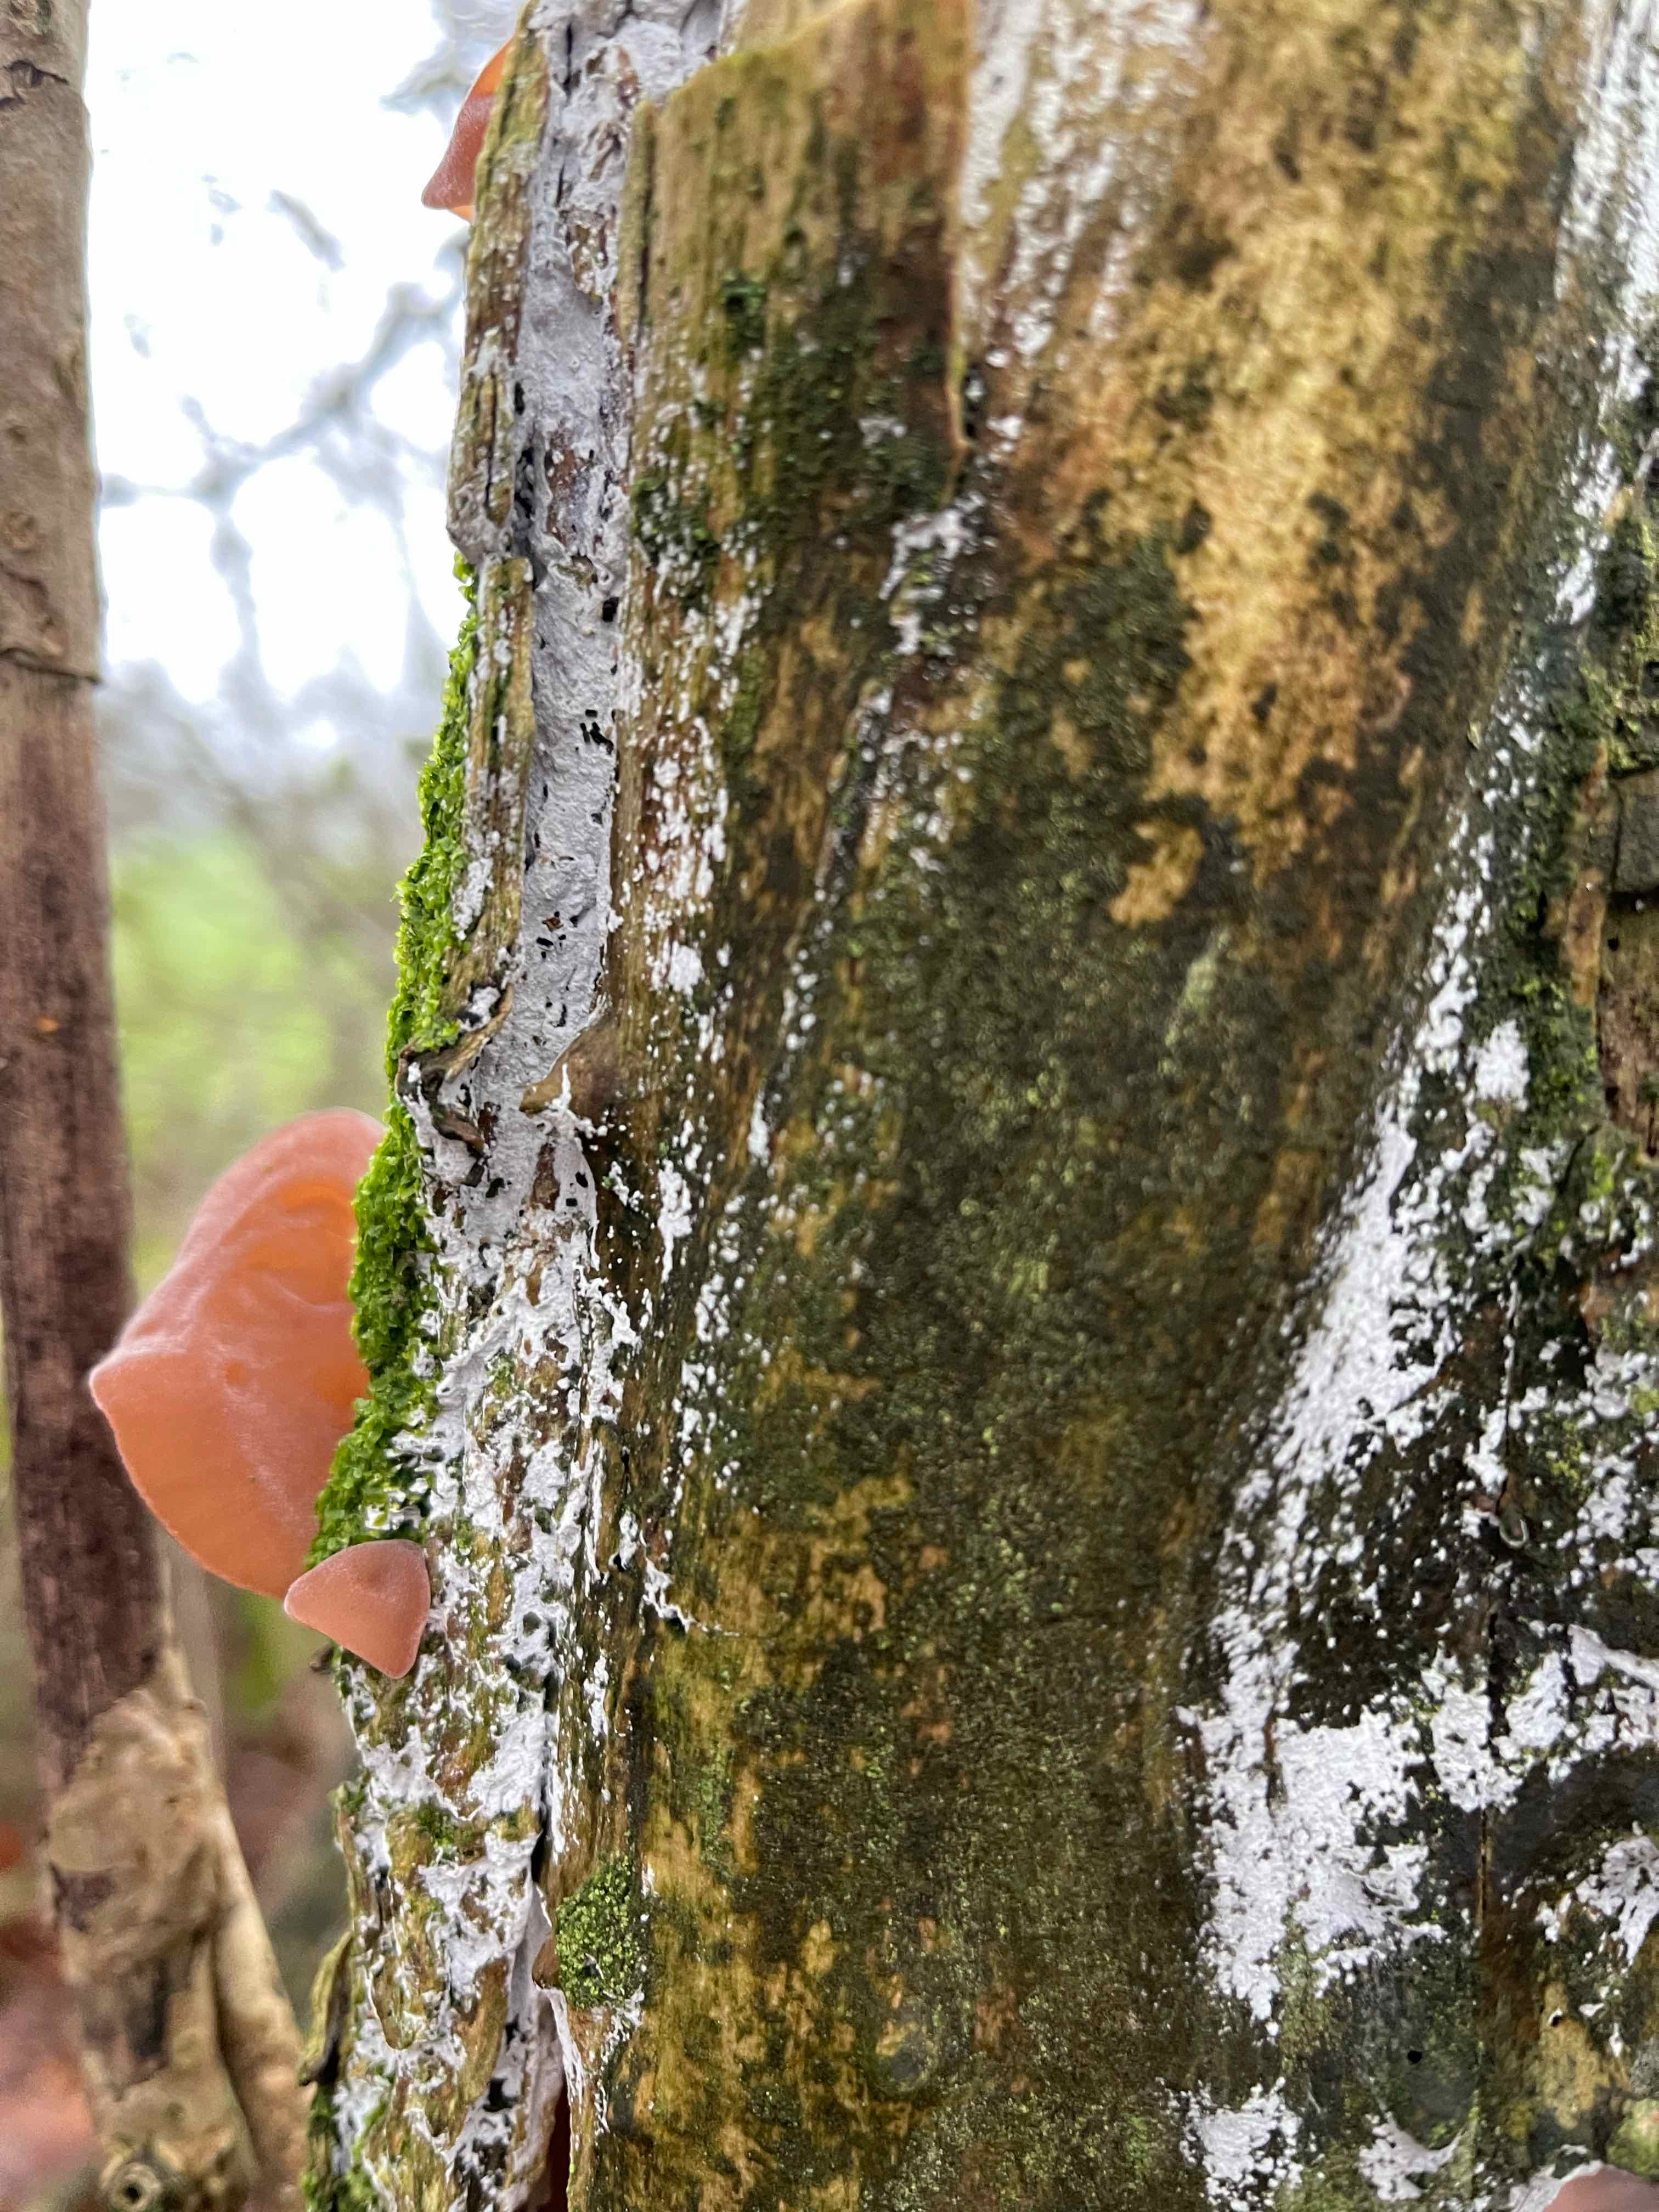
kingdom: Fungi
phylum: Basidiomycota
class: Agaricomycetes
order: Corticiales
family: Corticiaceae
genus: Lyomyces
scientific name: Lyomyces sambuci
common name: almindelig hyldehinde
